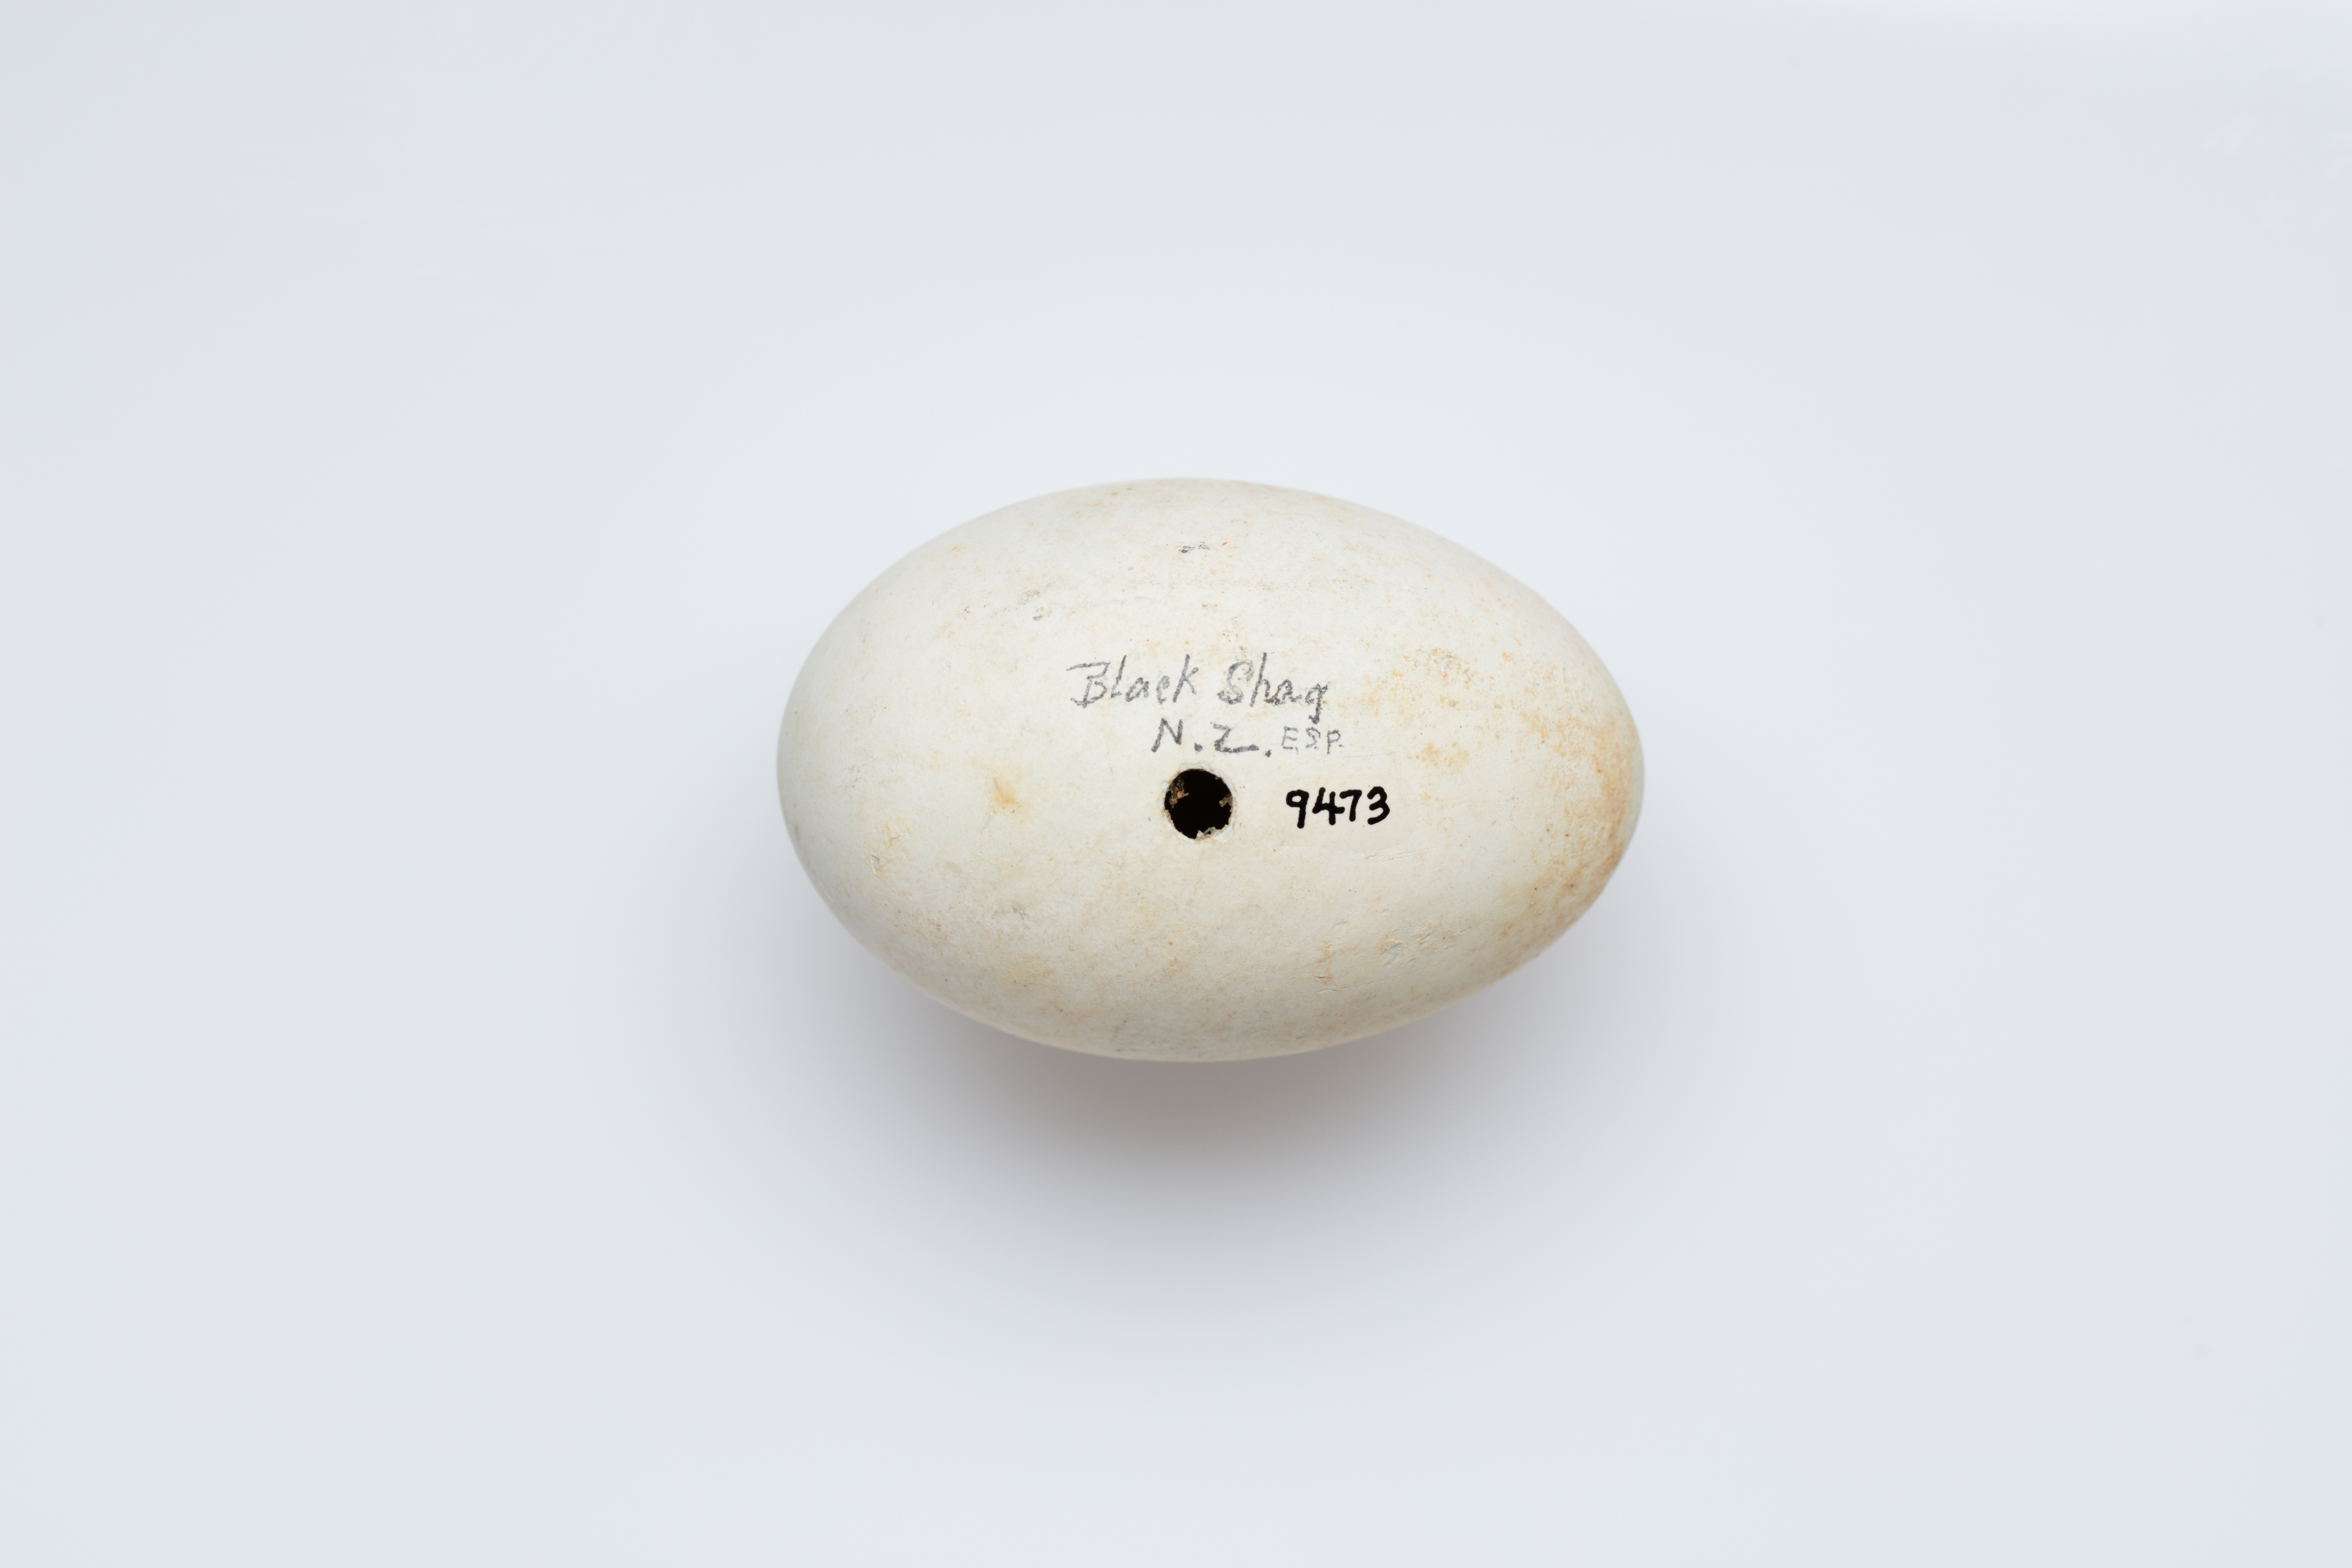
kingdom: Animalia
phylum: Chordata
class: Aves
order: Suliformes
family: Phalacrocoracidae
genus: Phalacrocorax
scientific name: Phalacrocorax carbo
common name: Great cormorant
